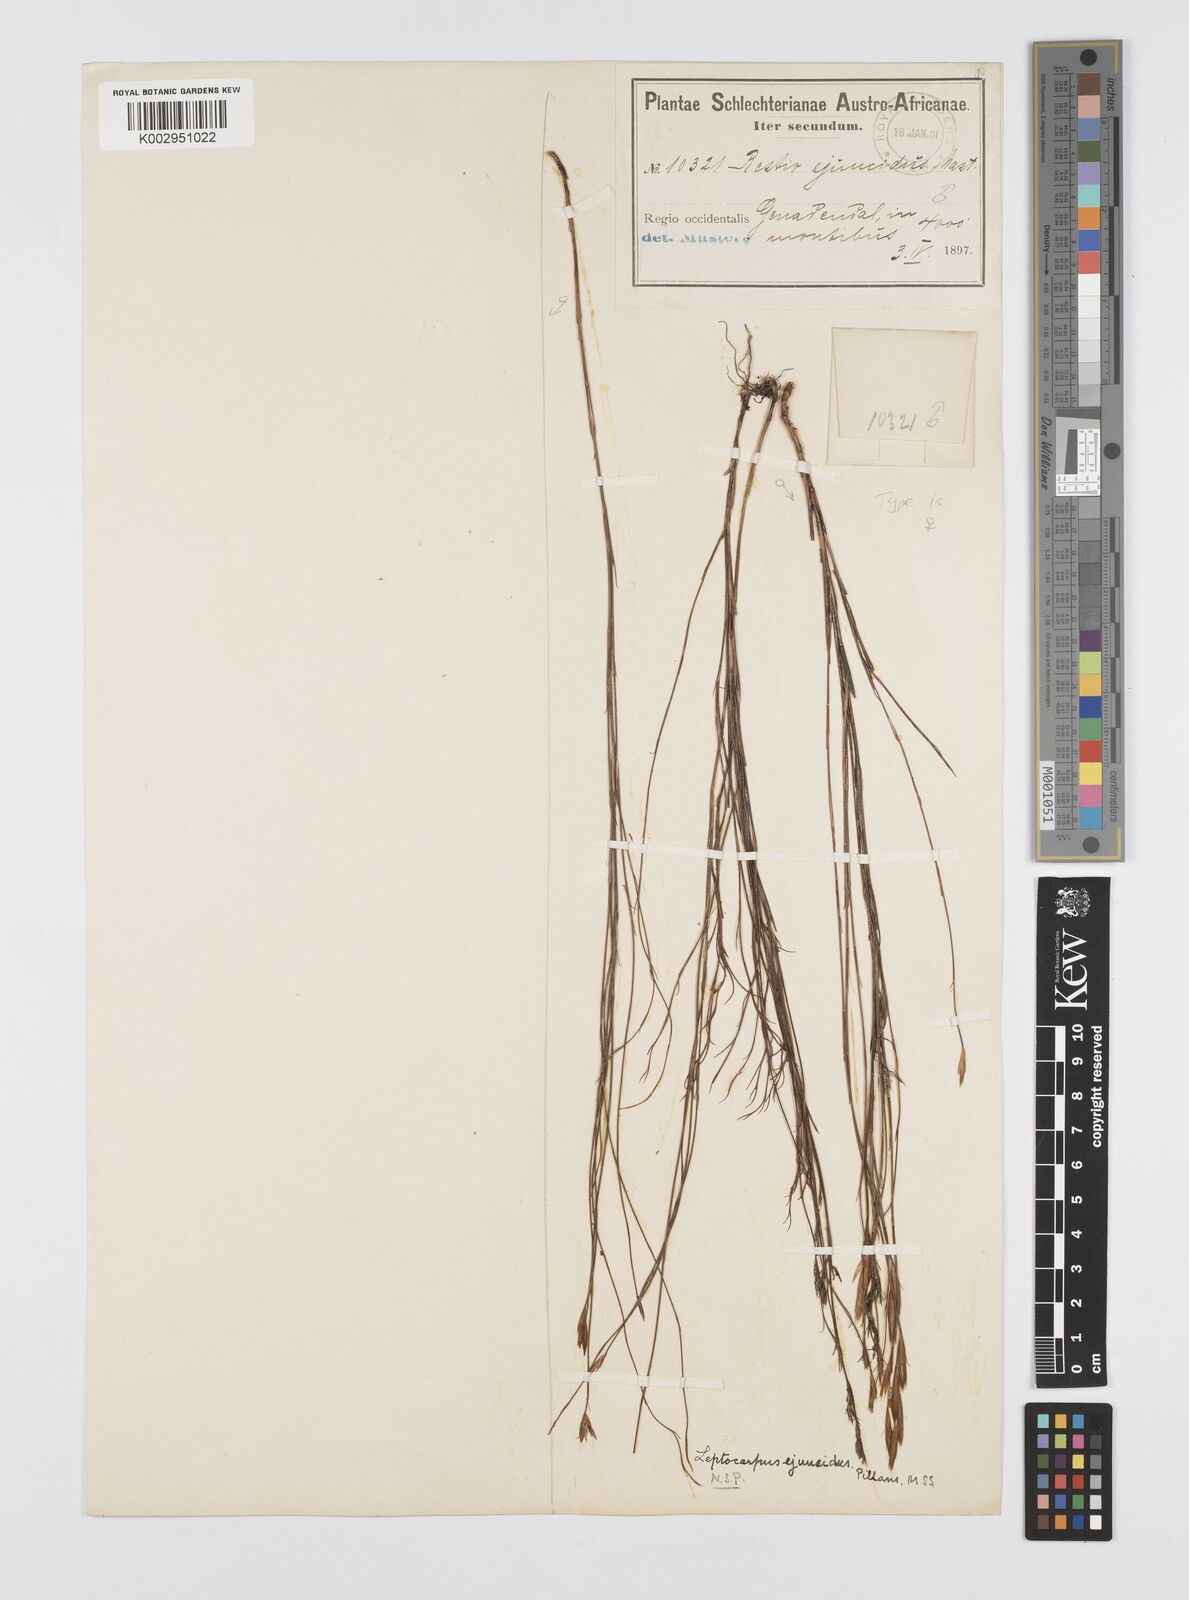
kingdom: Plantae
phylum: Tracheophyta
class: Liliopsida
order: Poales
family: Restionaceae
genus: Restio
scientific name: Restio ejuncidus
